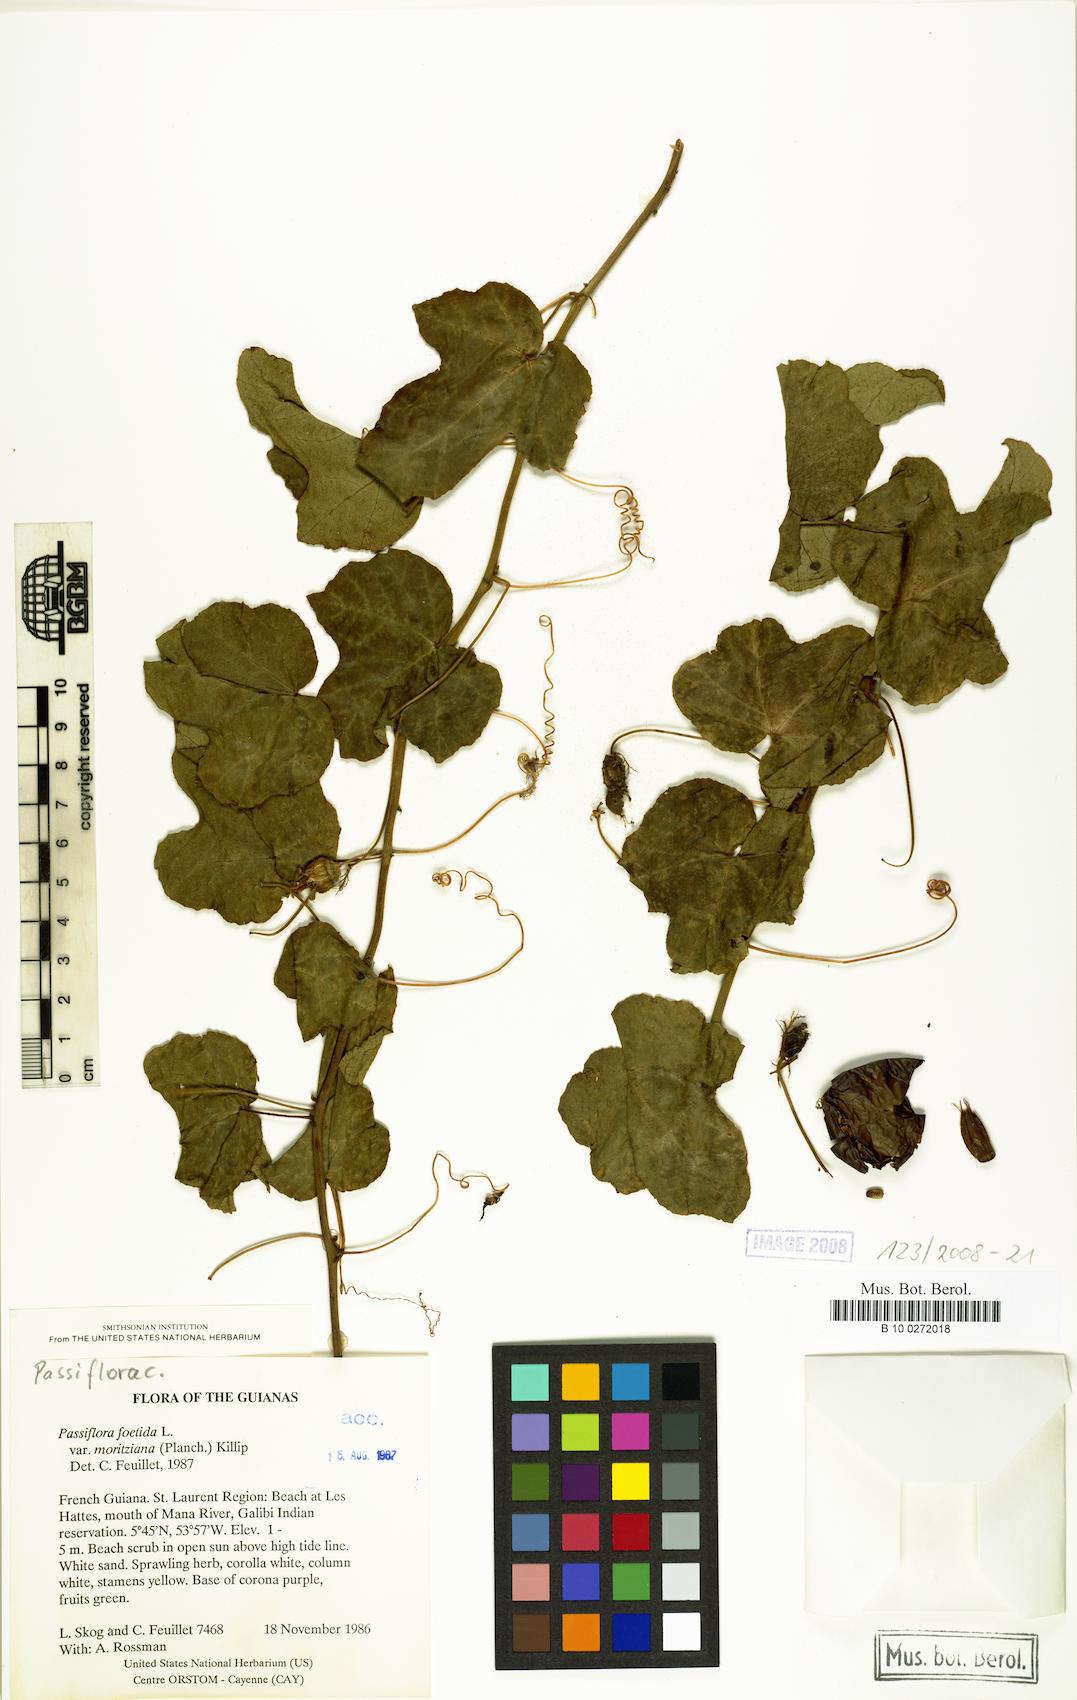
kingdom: Plantae
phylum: Tracheophyta
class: Magnoliopsida
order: Malpighiales
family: Passifloraceae
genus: Passiflora
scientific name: Passiflora foetida
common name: Fetid passionflower
